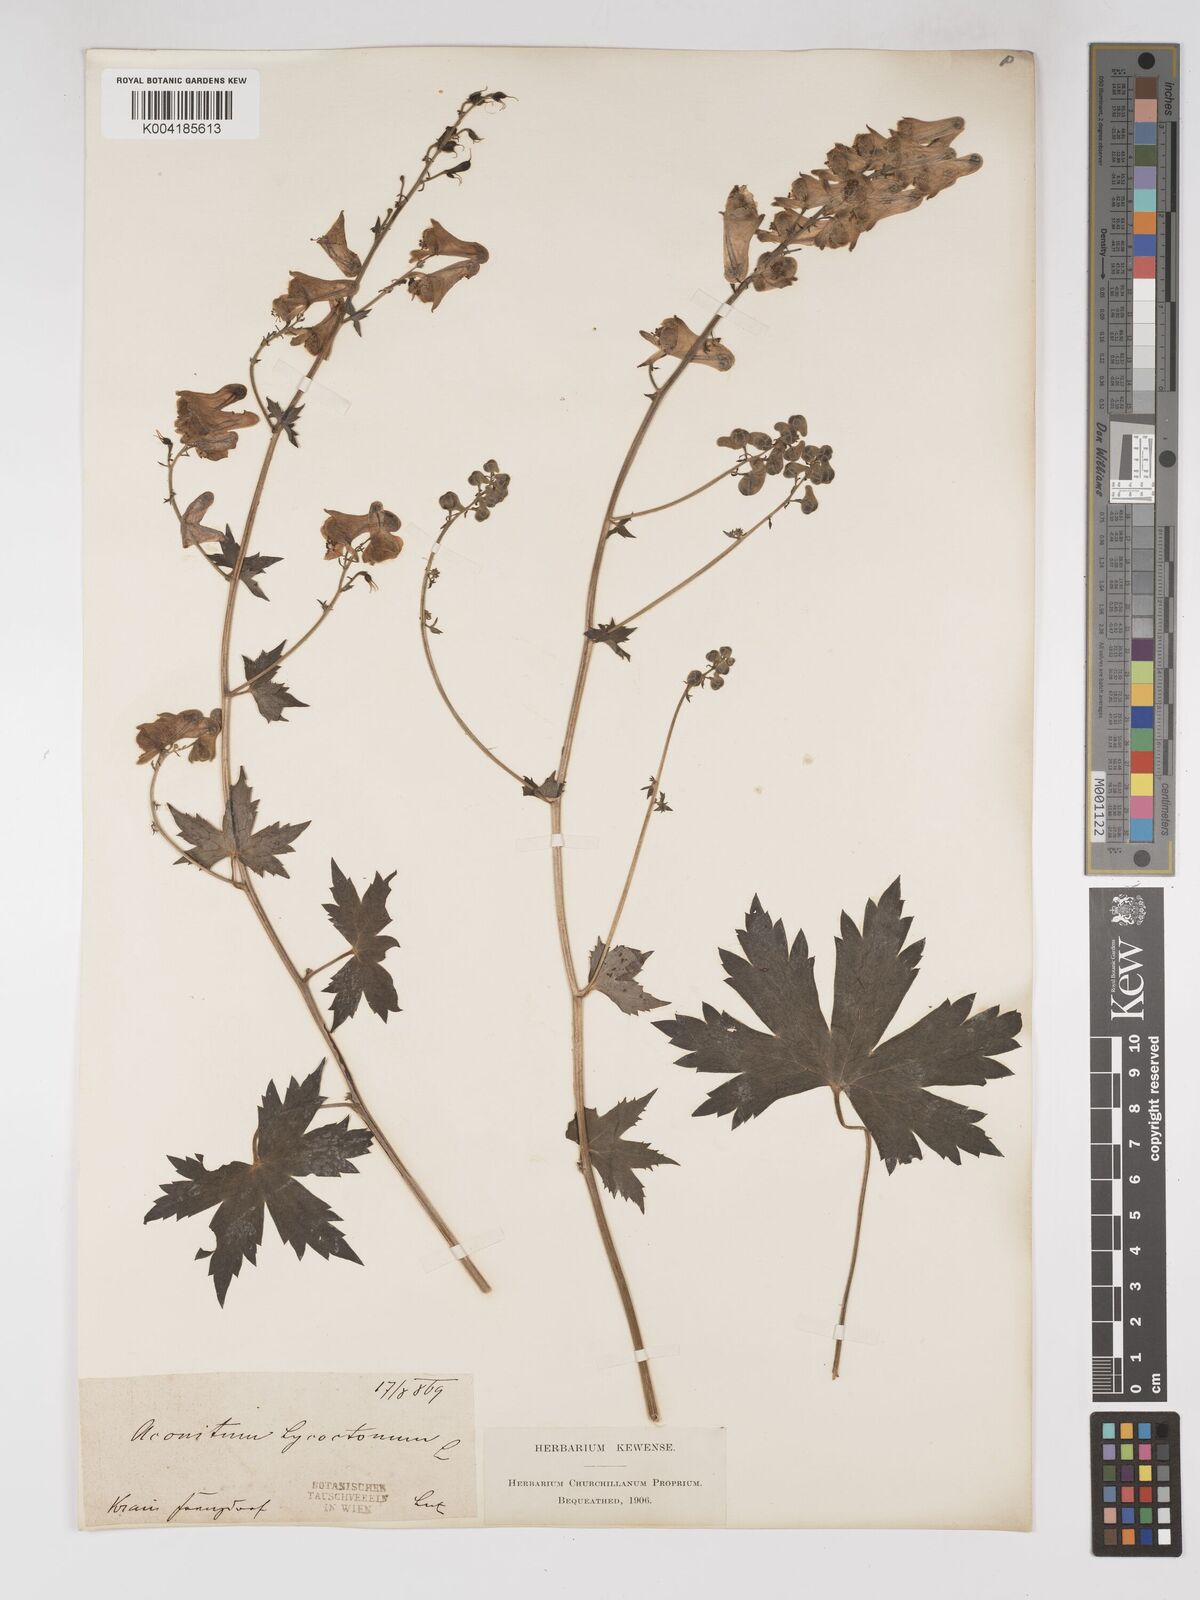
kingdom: Plantae
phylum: Tracheophyta
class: Magnoliopsida
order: Ranunculales
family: Ranunculaceae
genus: Aconitum
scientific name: Aconitum lycoctonum
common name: Wolf's-bane
